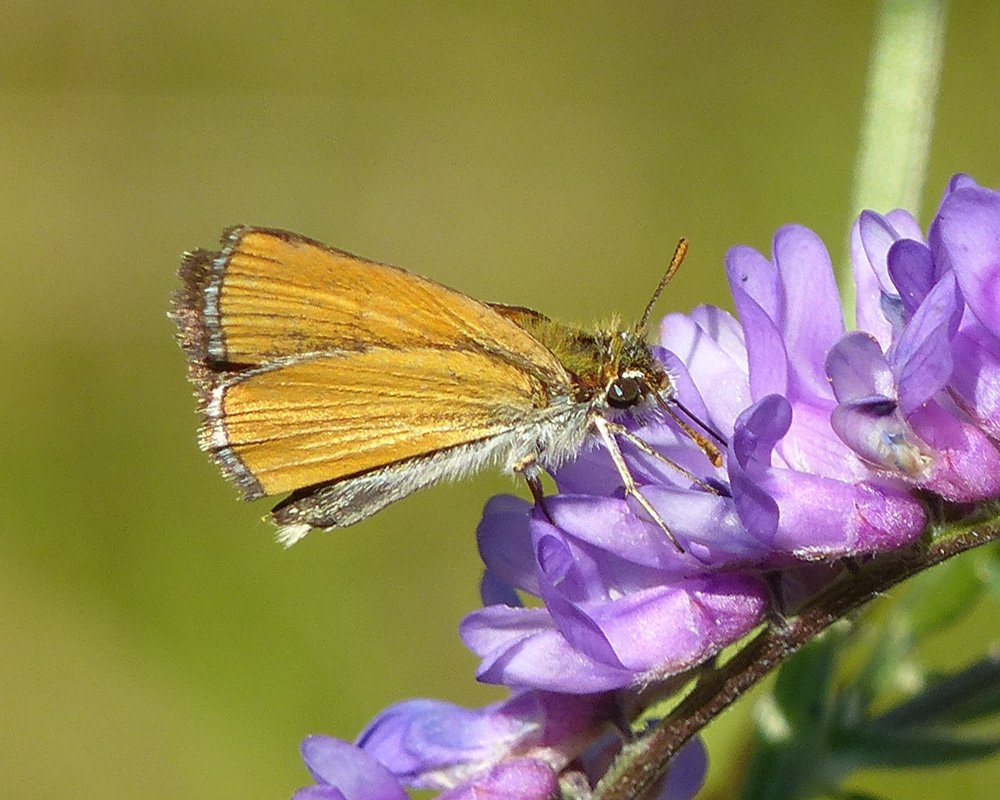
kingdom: Animalia
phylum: Arthropoda
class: Insecta
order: Lepidoptera
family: Hesperiidae
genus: Oarisma
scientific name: Oarisma garita
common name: Garita Skipperling
